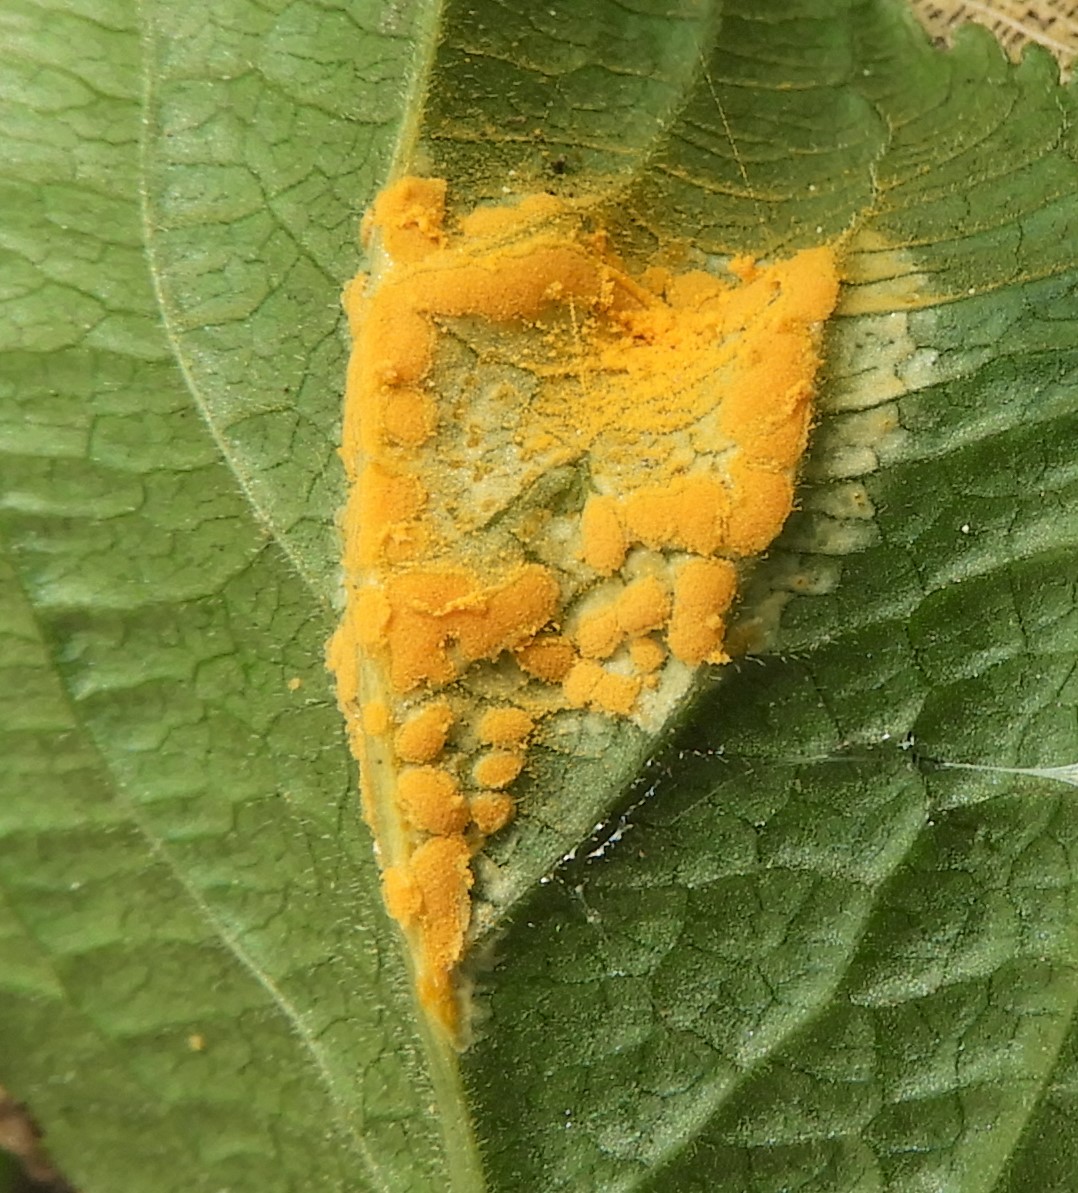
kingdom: Fungi
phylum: Basidiomycota
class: Pucciniomycetes
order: Pucciniales
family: Melampsoraceae
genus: Melampsora
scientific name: Melampsora populnea
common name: poppel-skorperust
